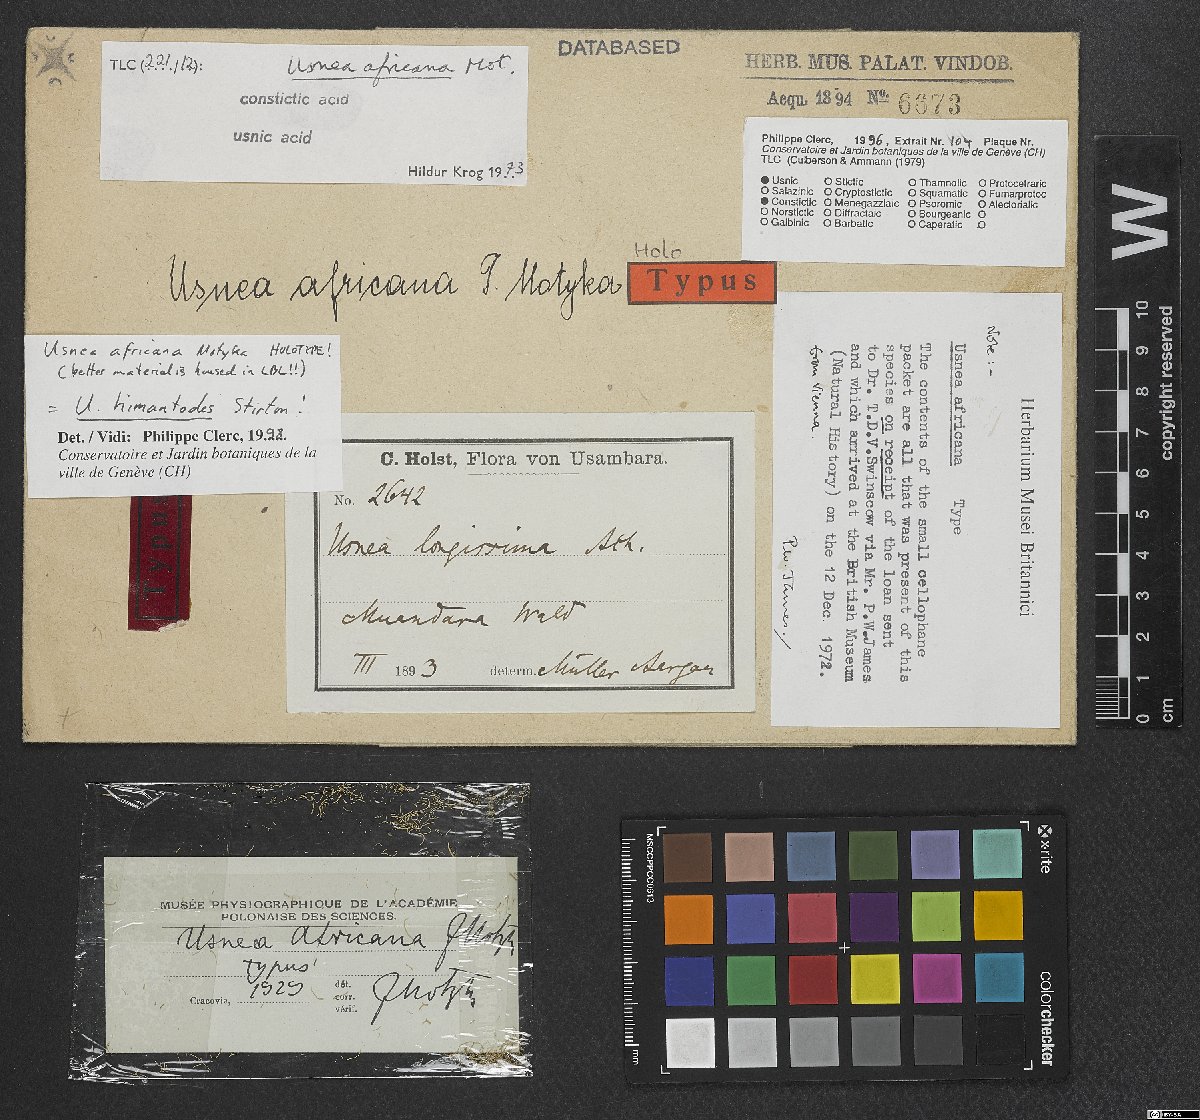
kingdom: Fungi
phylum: Ascomycota
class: Lecanoromycetes
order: Lecanorales
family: Parmeliaceae
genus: Usnea
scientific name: Usnea himantodes
